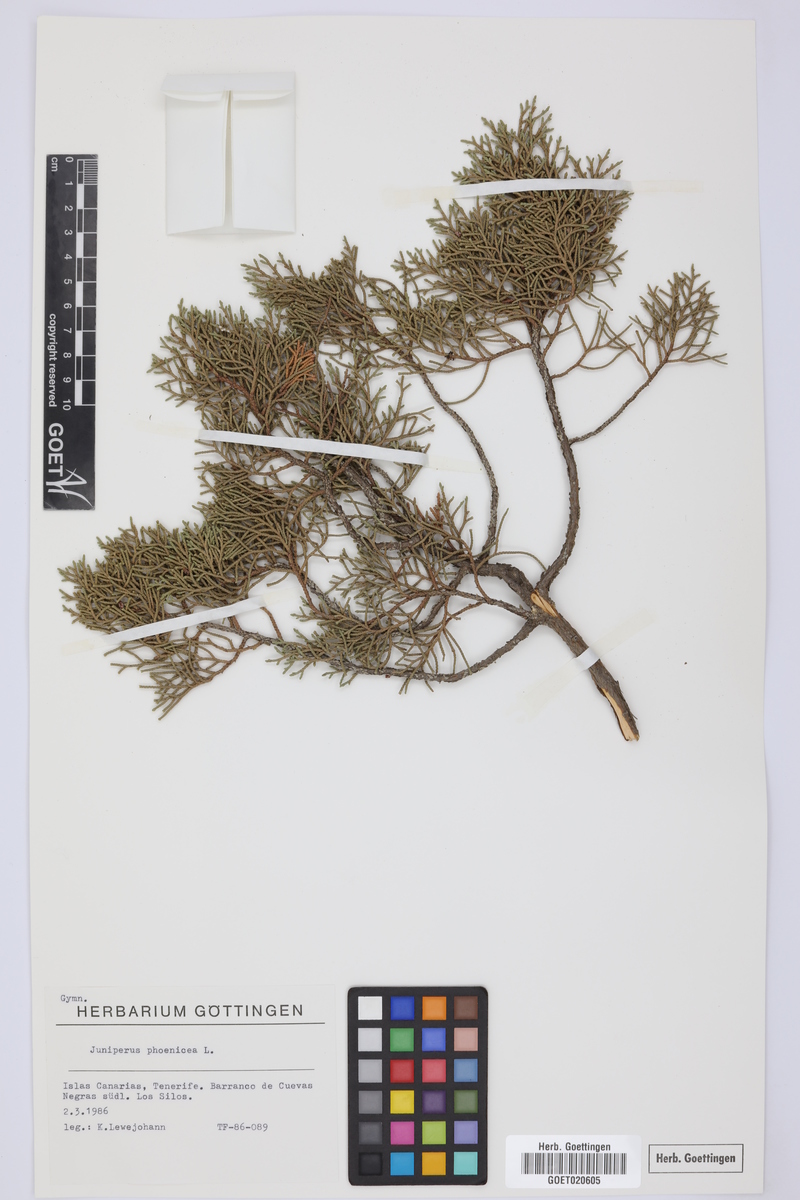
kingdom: Plantae
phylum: Tracheophyta
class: Pinopsida
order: Pinales
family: Cupressaceae
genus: Juniperus
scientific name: Juniperus phoenicea
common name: Phoenician juniper
